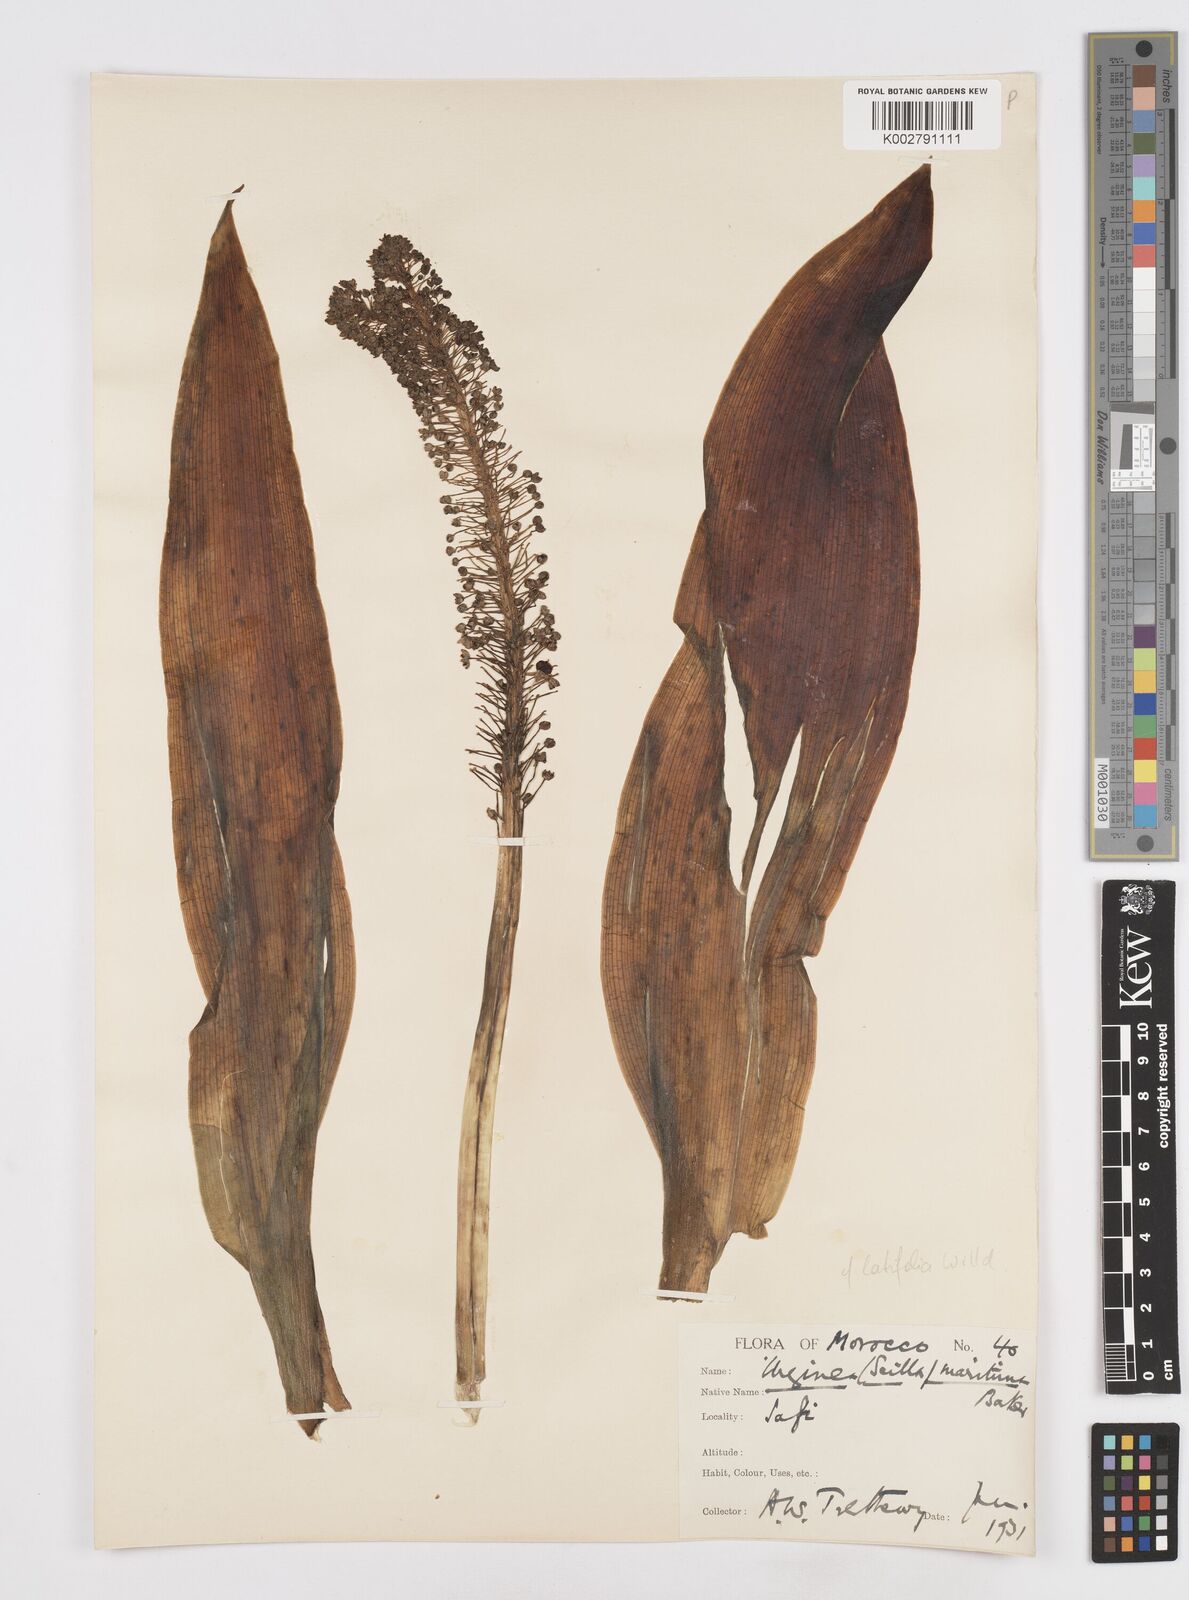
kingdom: Plantae
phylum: Tracheophyta
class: Liliopsida
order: Asparagales
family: Asparagaceae
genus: Scilla
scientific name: Scilla
